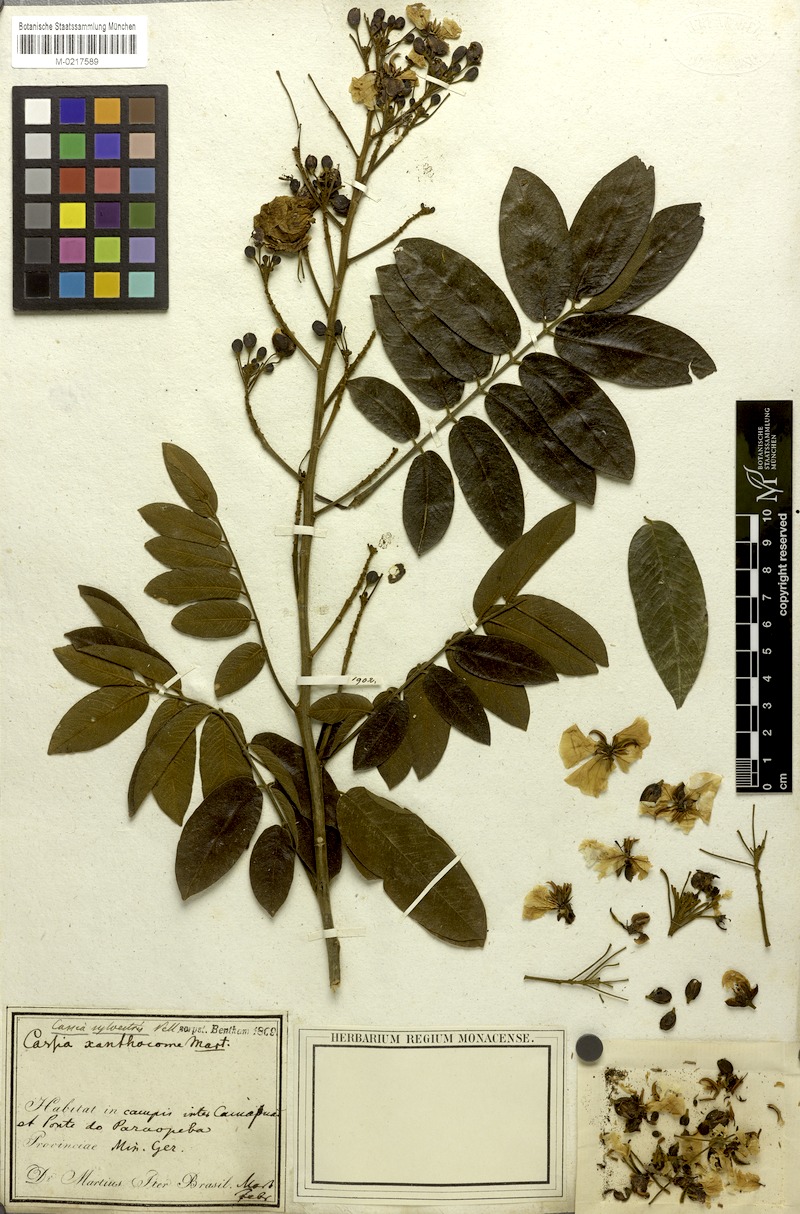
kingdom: Plantae
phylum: Tracheophyta
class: Magnoliopsida
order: Fabales
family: Fabaceae
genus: Senna
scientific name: Senna silvestris
